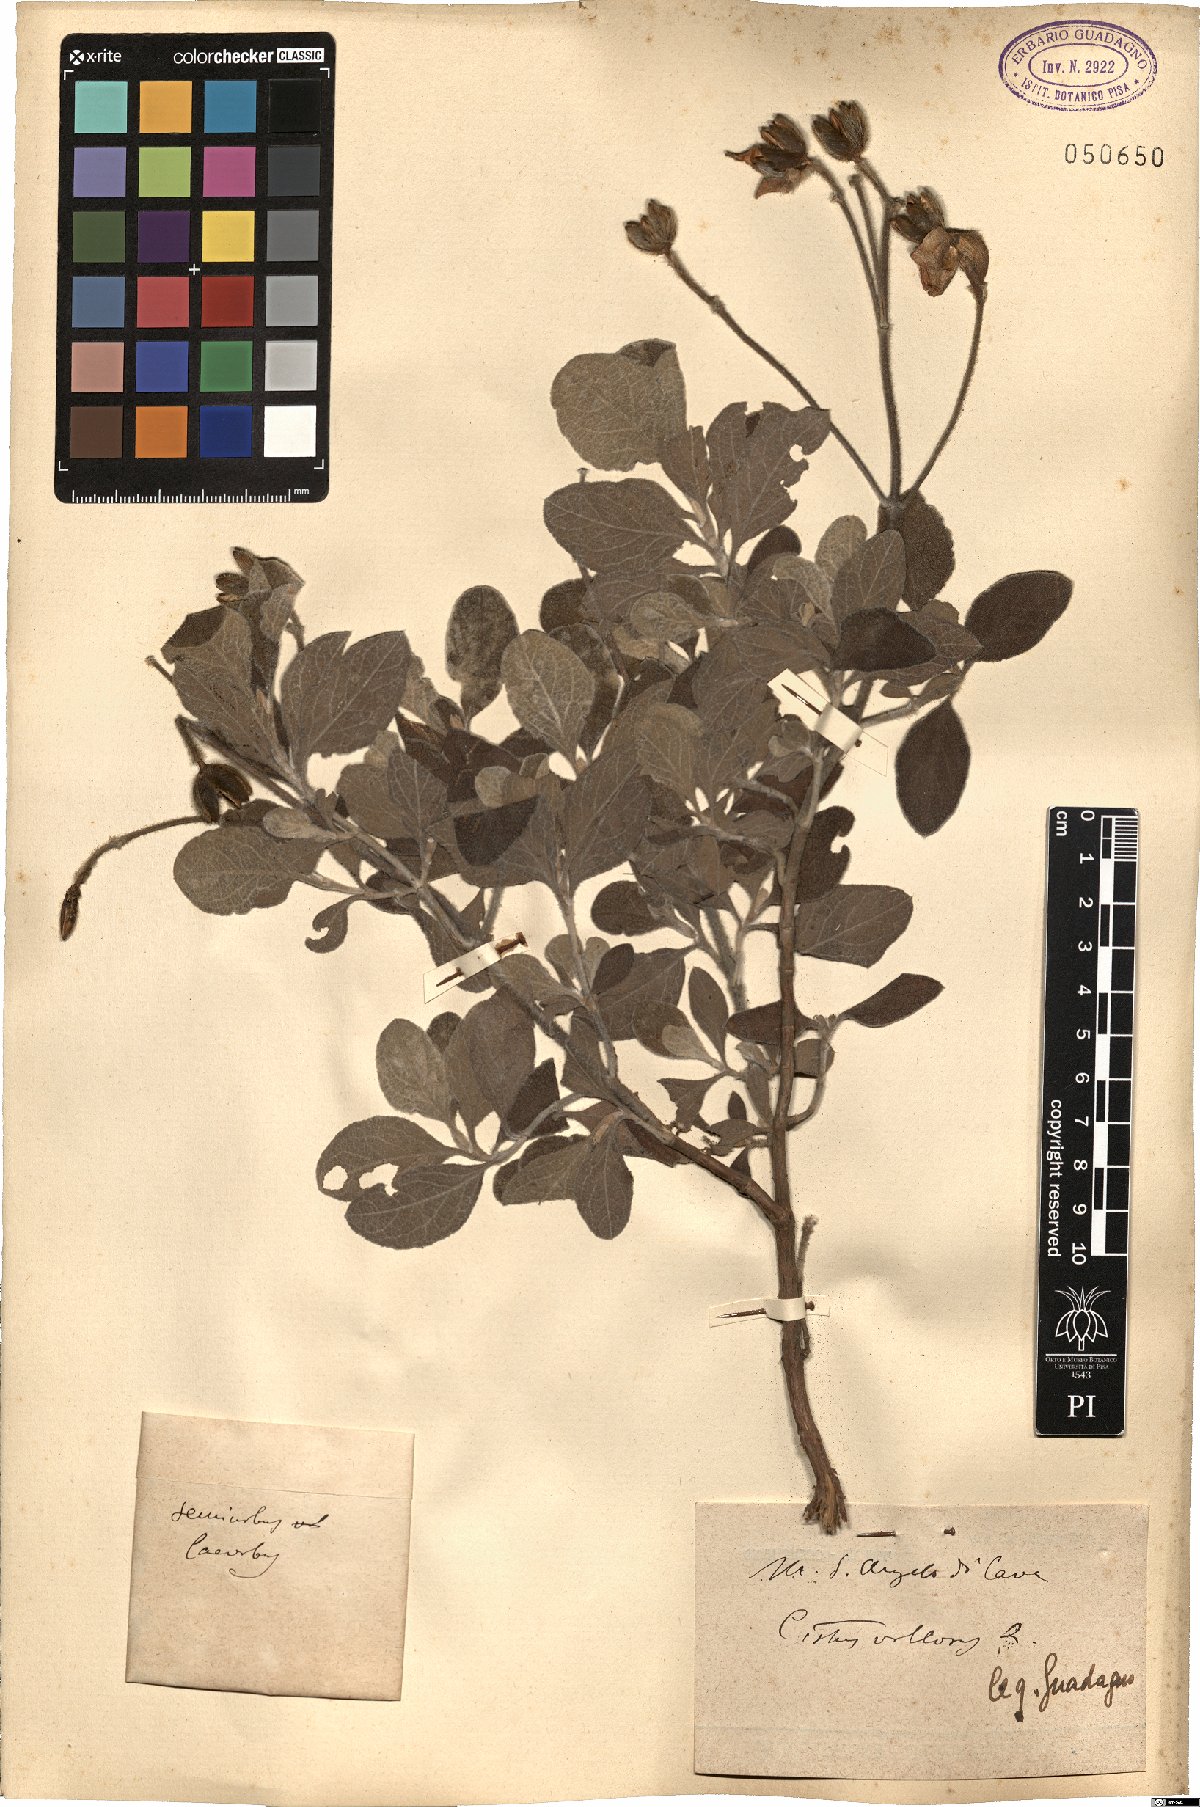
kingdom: Plantae
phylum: Tracheophyta
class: Magnoliopsida
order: Malvales
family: Cistaceae
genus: Cistus
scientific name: Cistus creticus
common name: Cretan rockrose
